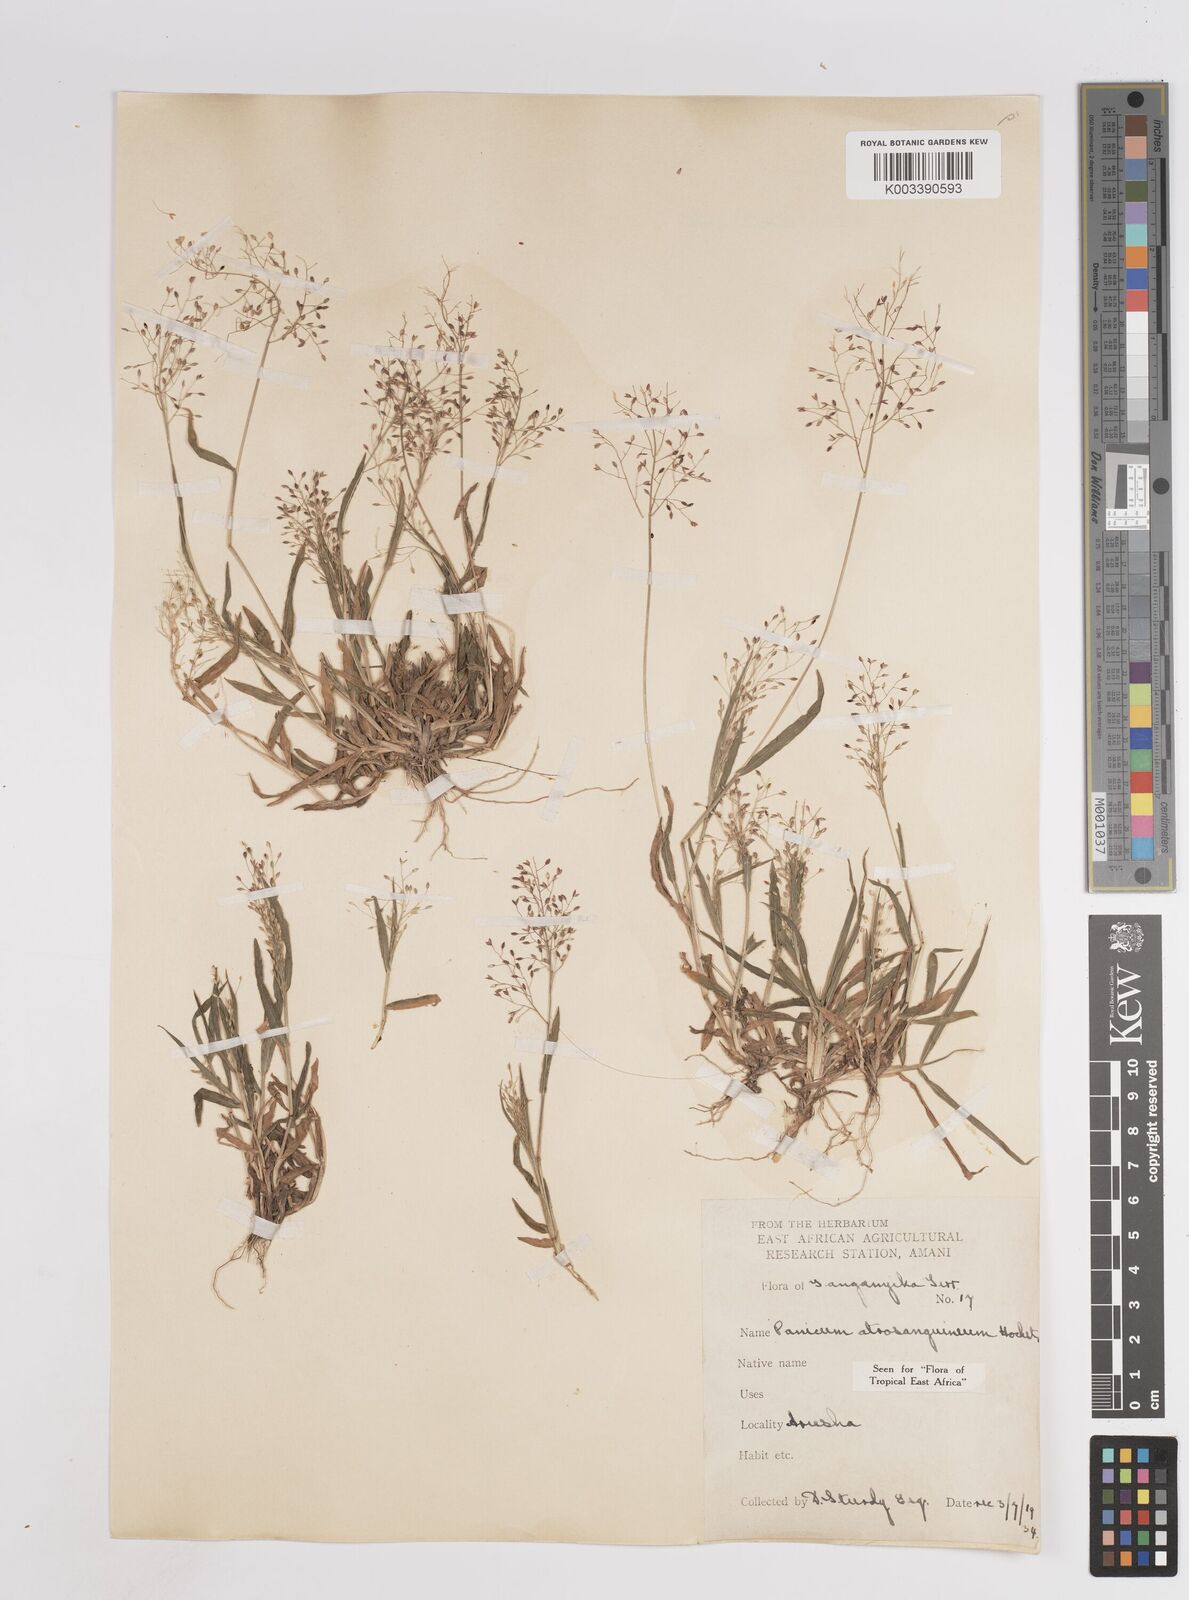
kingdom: Plantae
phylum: Tracheophyta
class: Liliopsida
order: Poales
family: Poaceae
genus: Panicum
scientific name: Panicum atrosanguineum
